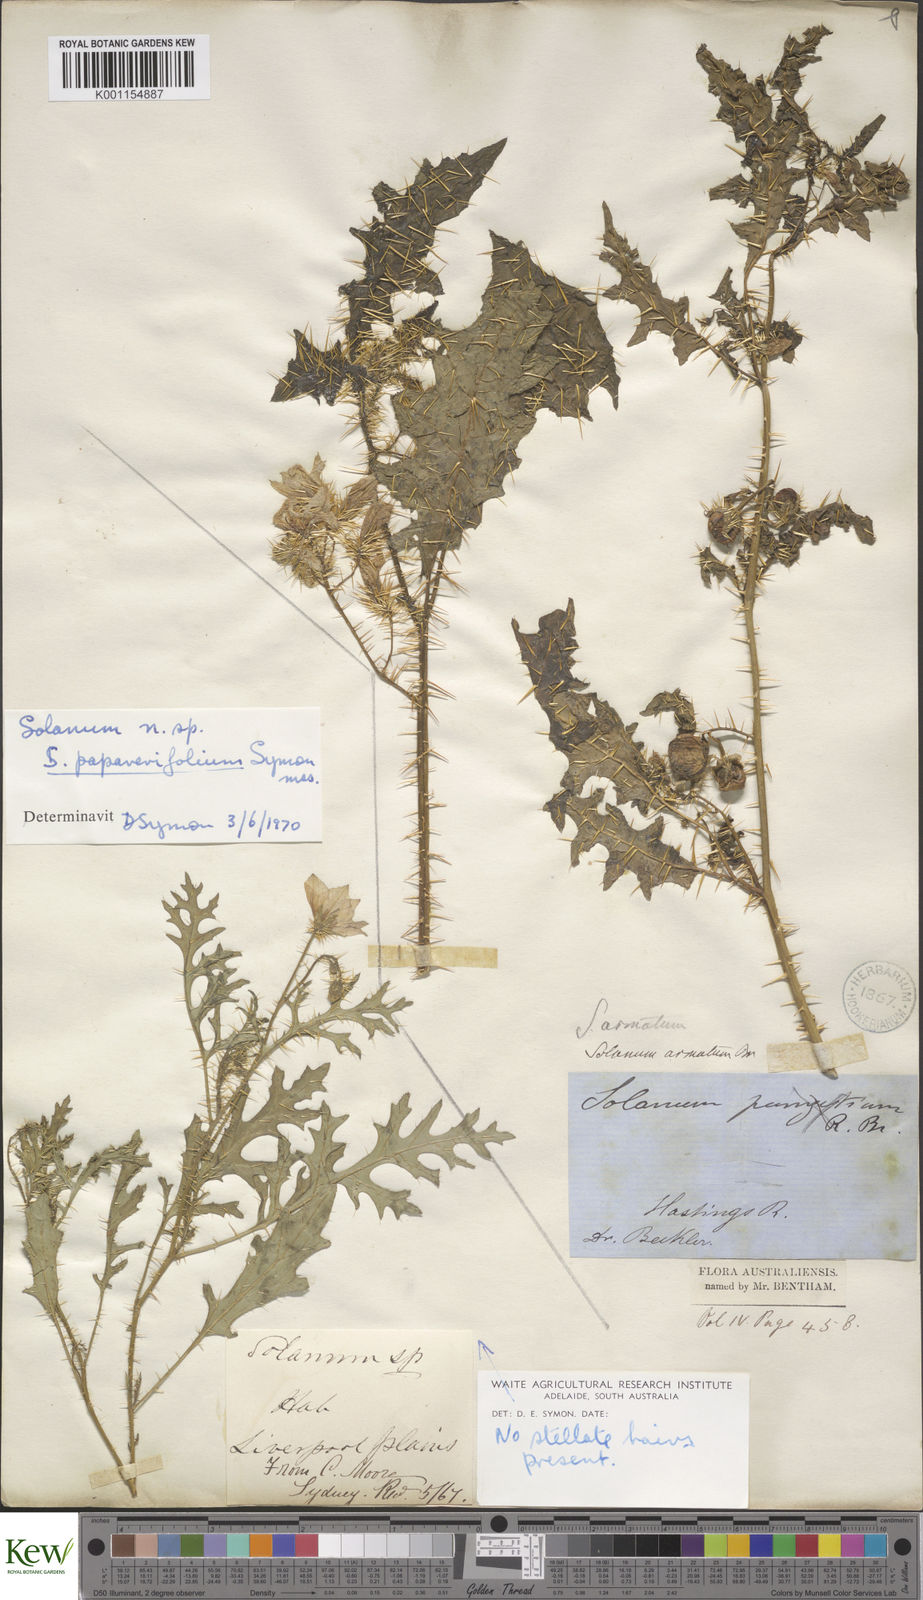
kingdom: Plantae
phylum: Tracheophyta
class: Magnoliopsida
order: Solanales
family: Solanaceae
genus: Solanum
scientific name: Solanum prinophyllum
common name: Forest nightshade
